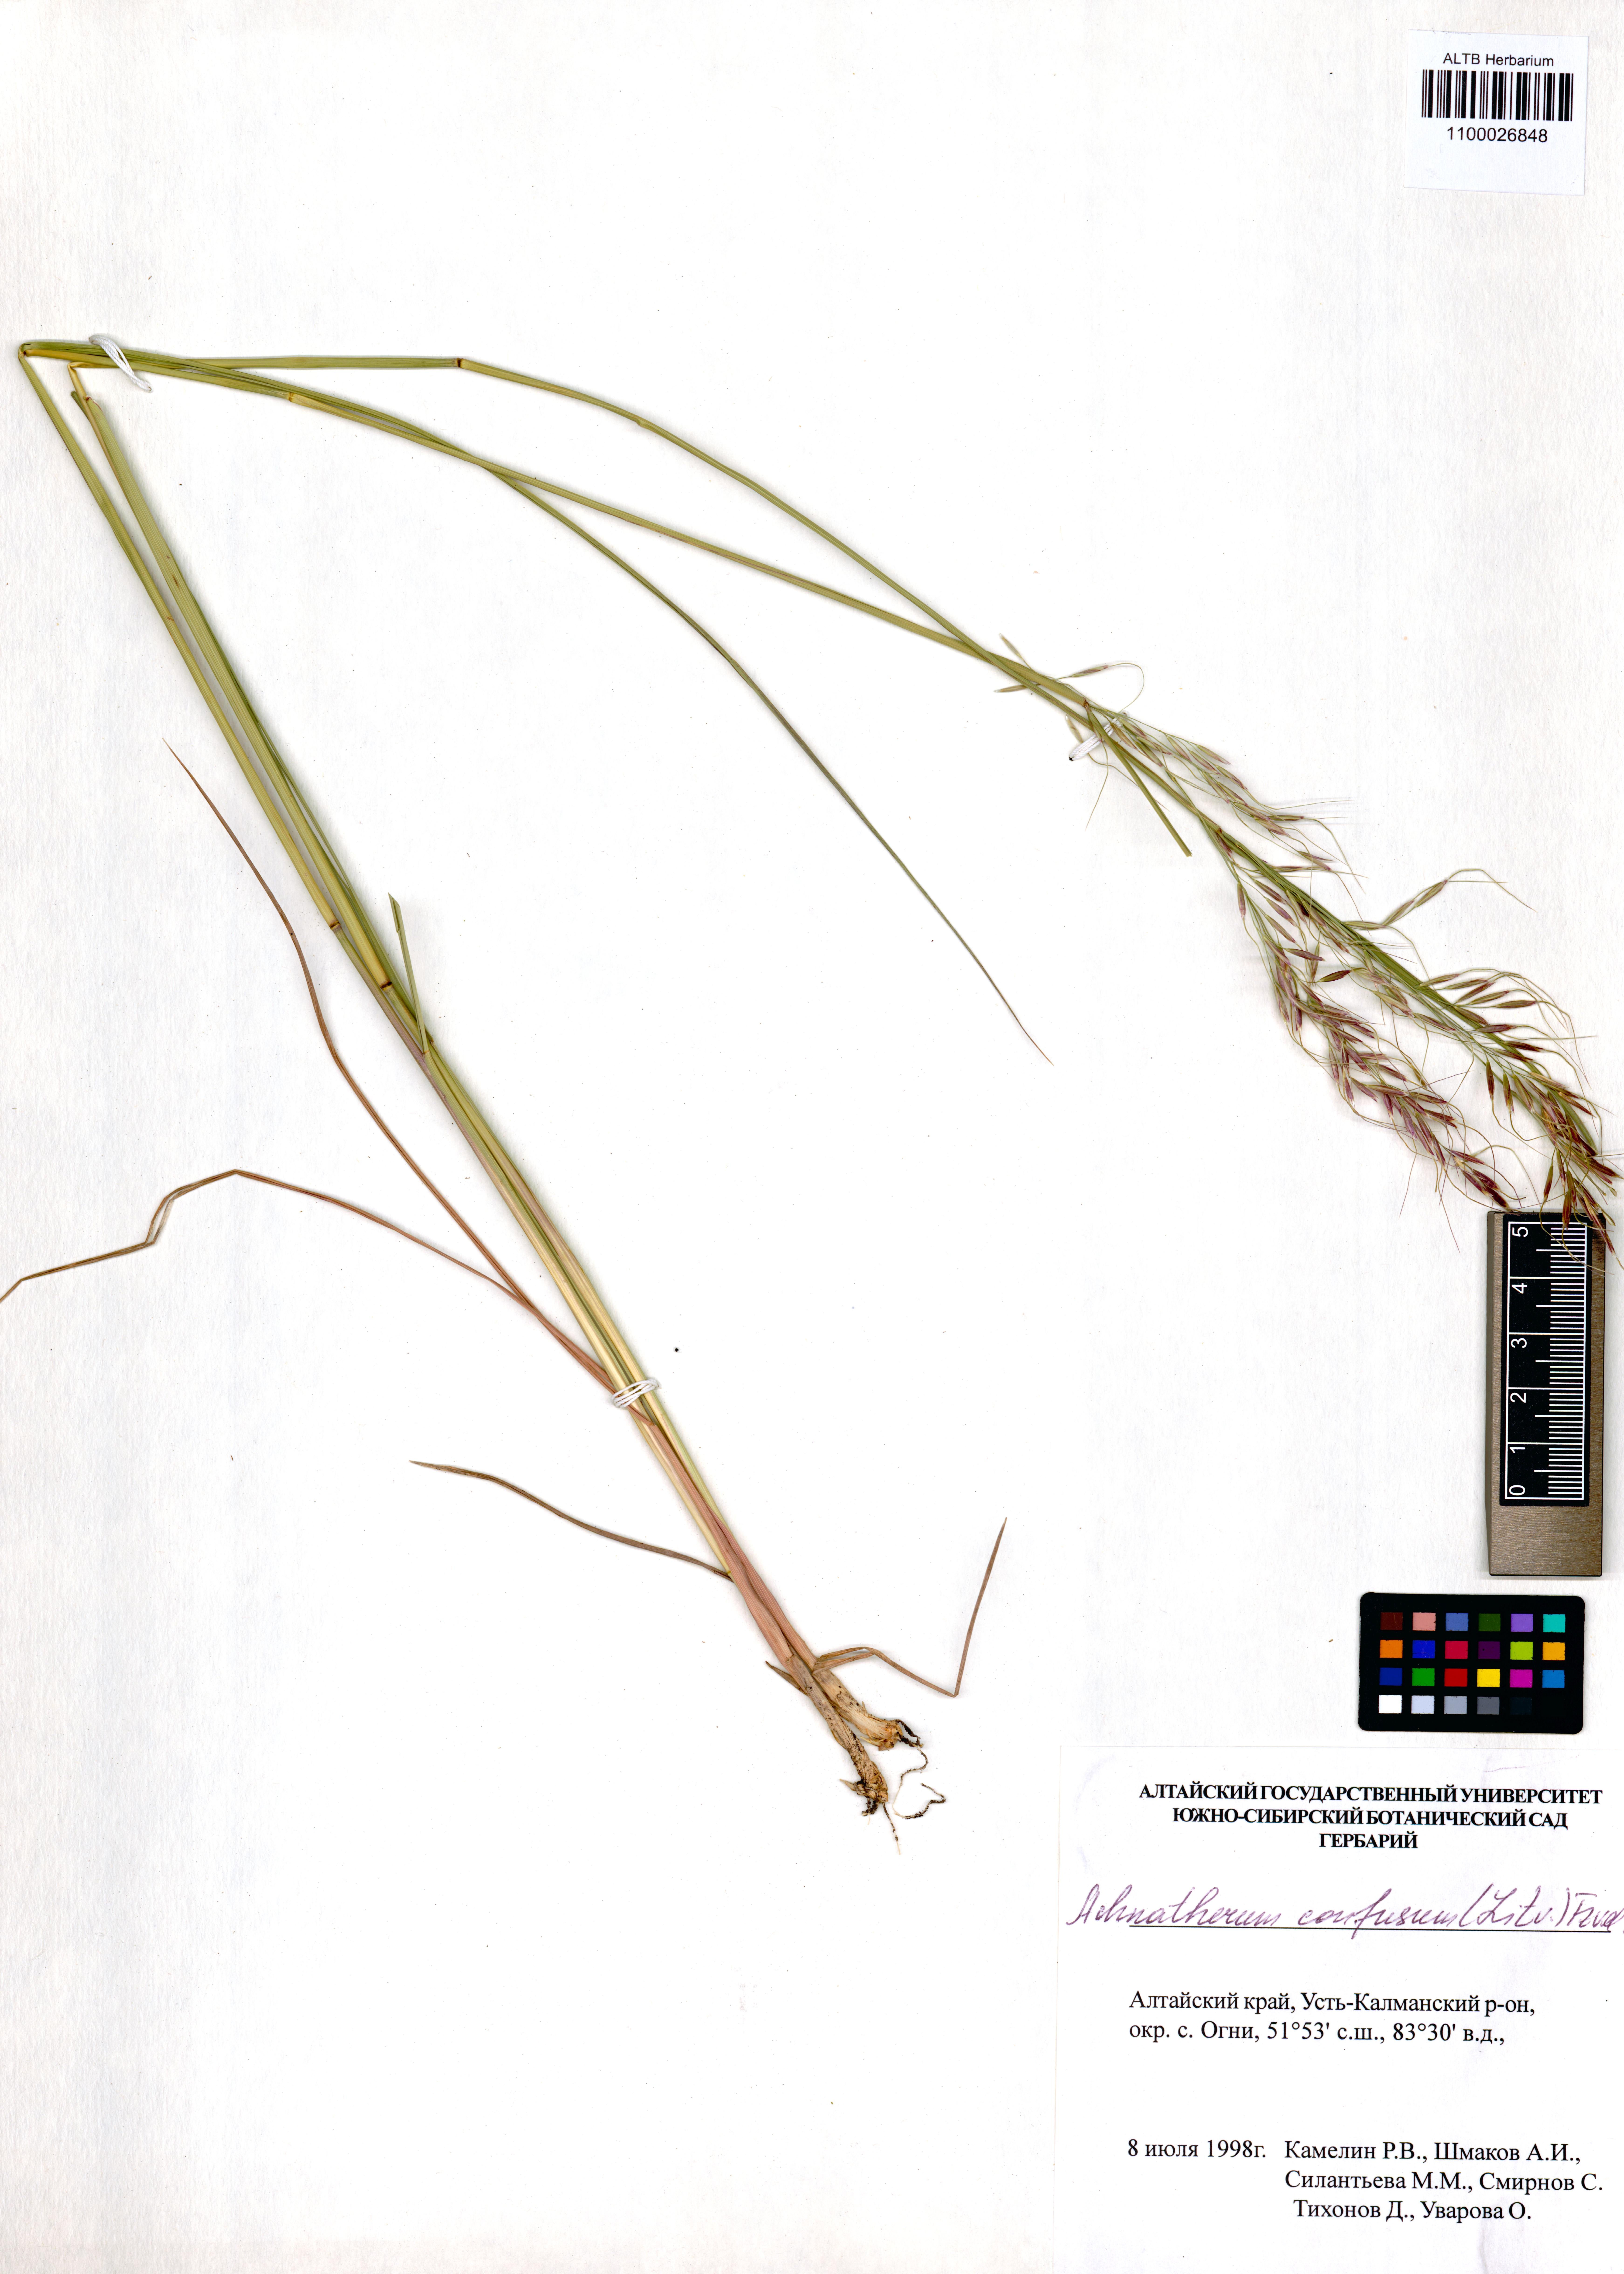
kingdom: Plantae
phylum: Tracheophyta
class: Liliopsida
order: Poales
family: Poaceae
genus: Achnatherum
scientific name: Achnatherum confusum
